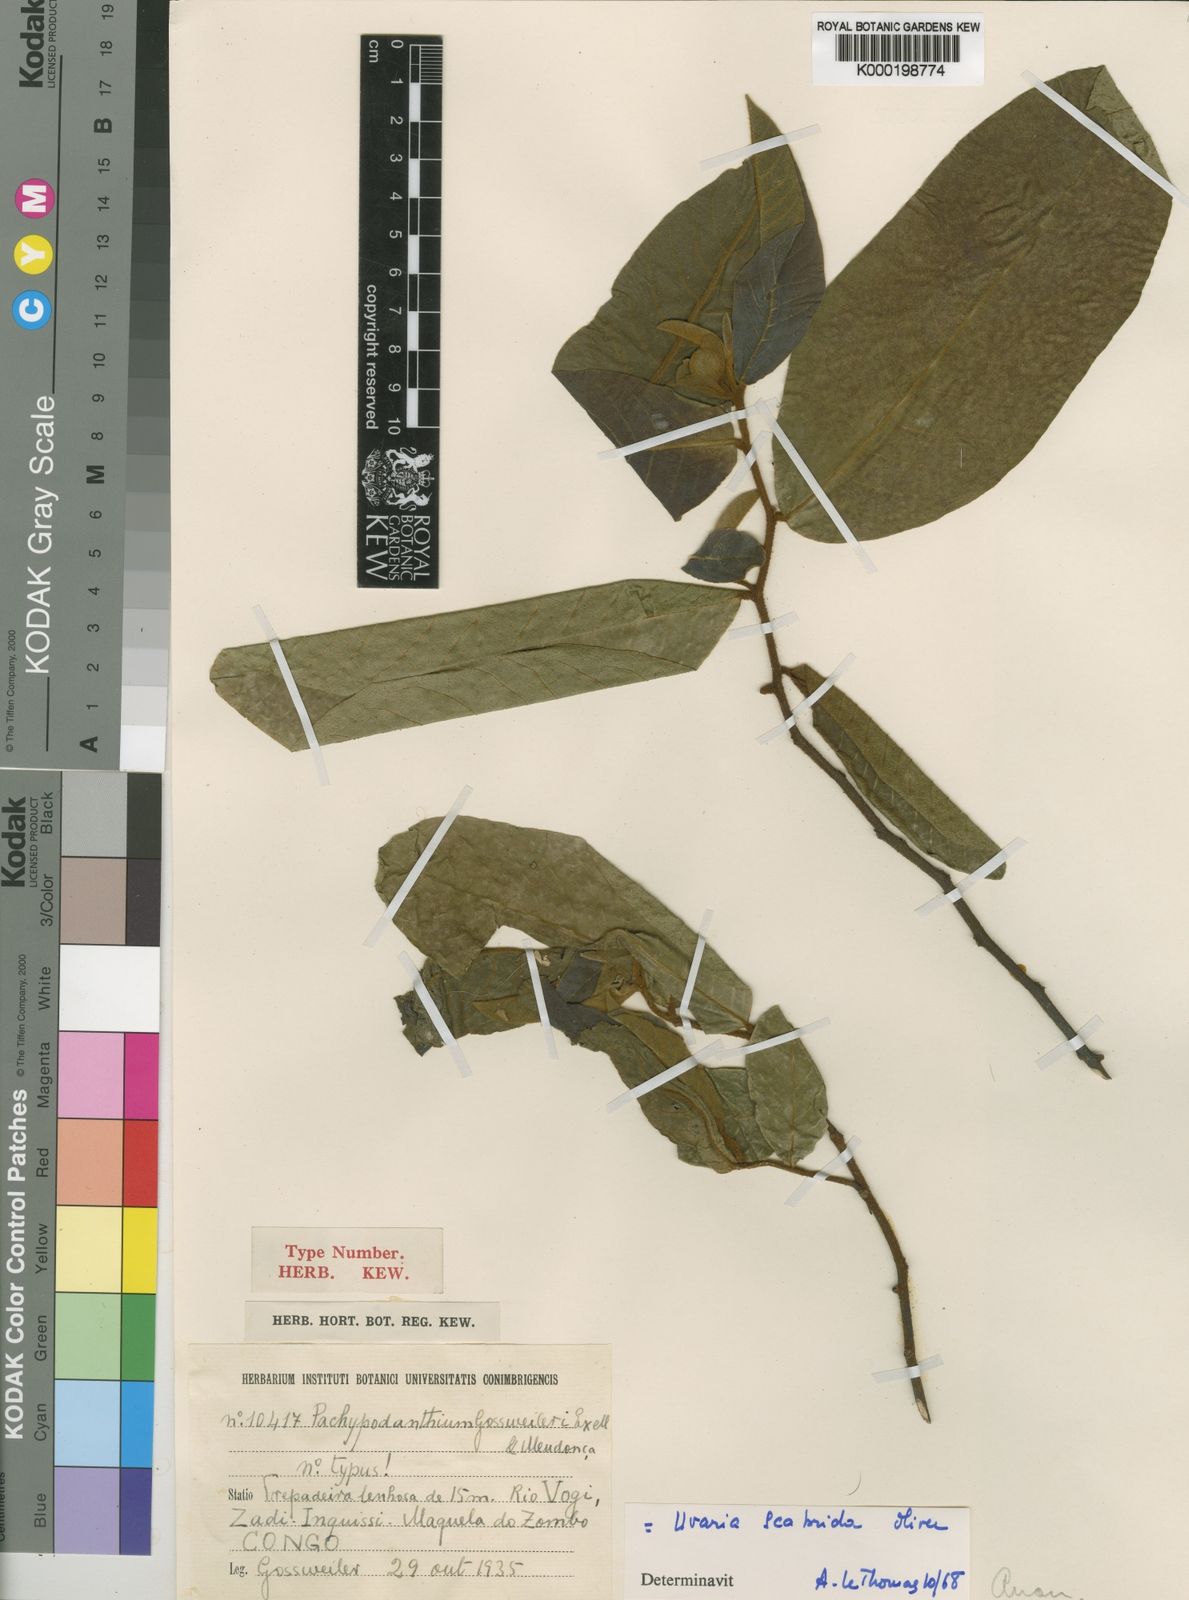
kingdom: Plantae
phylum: Tracheophyta
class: Magnoliopsida
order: Magnoliales
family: Annonaceae
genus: Uvaria
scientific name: Uvaria scabrida
